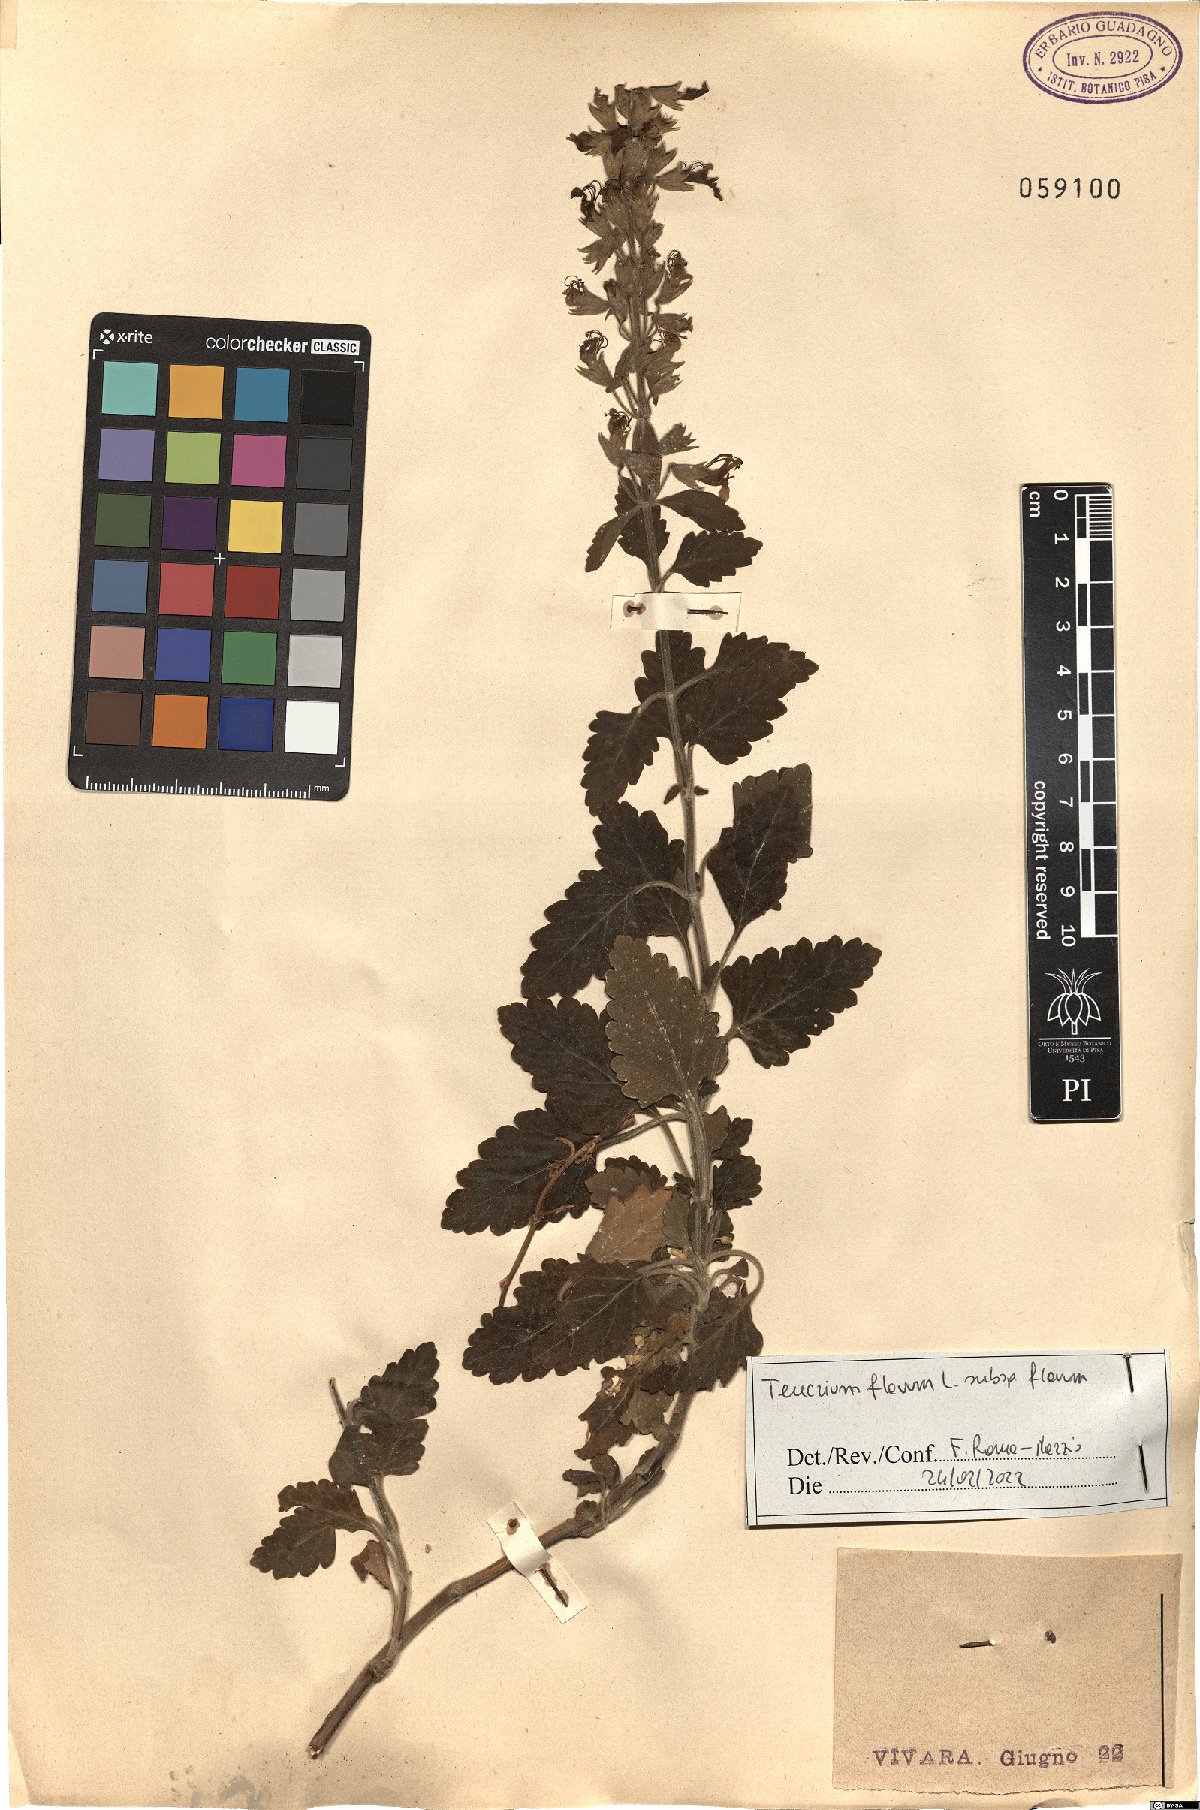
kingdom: Plantae
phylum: Tracheophyta
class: Magnoliopsida
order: Lamiales
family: Lamiaceae
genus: Teucrium
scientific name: Teucrium flavum
